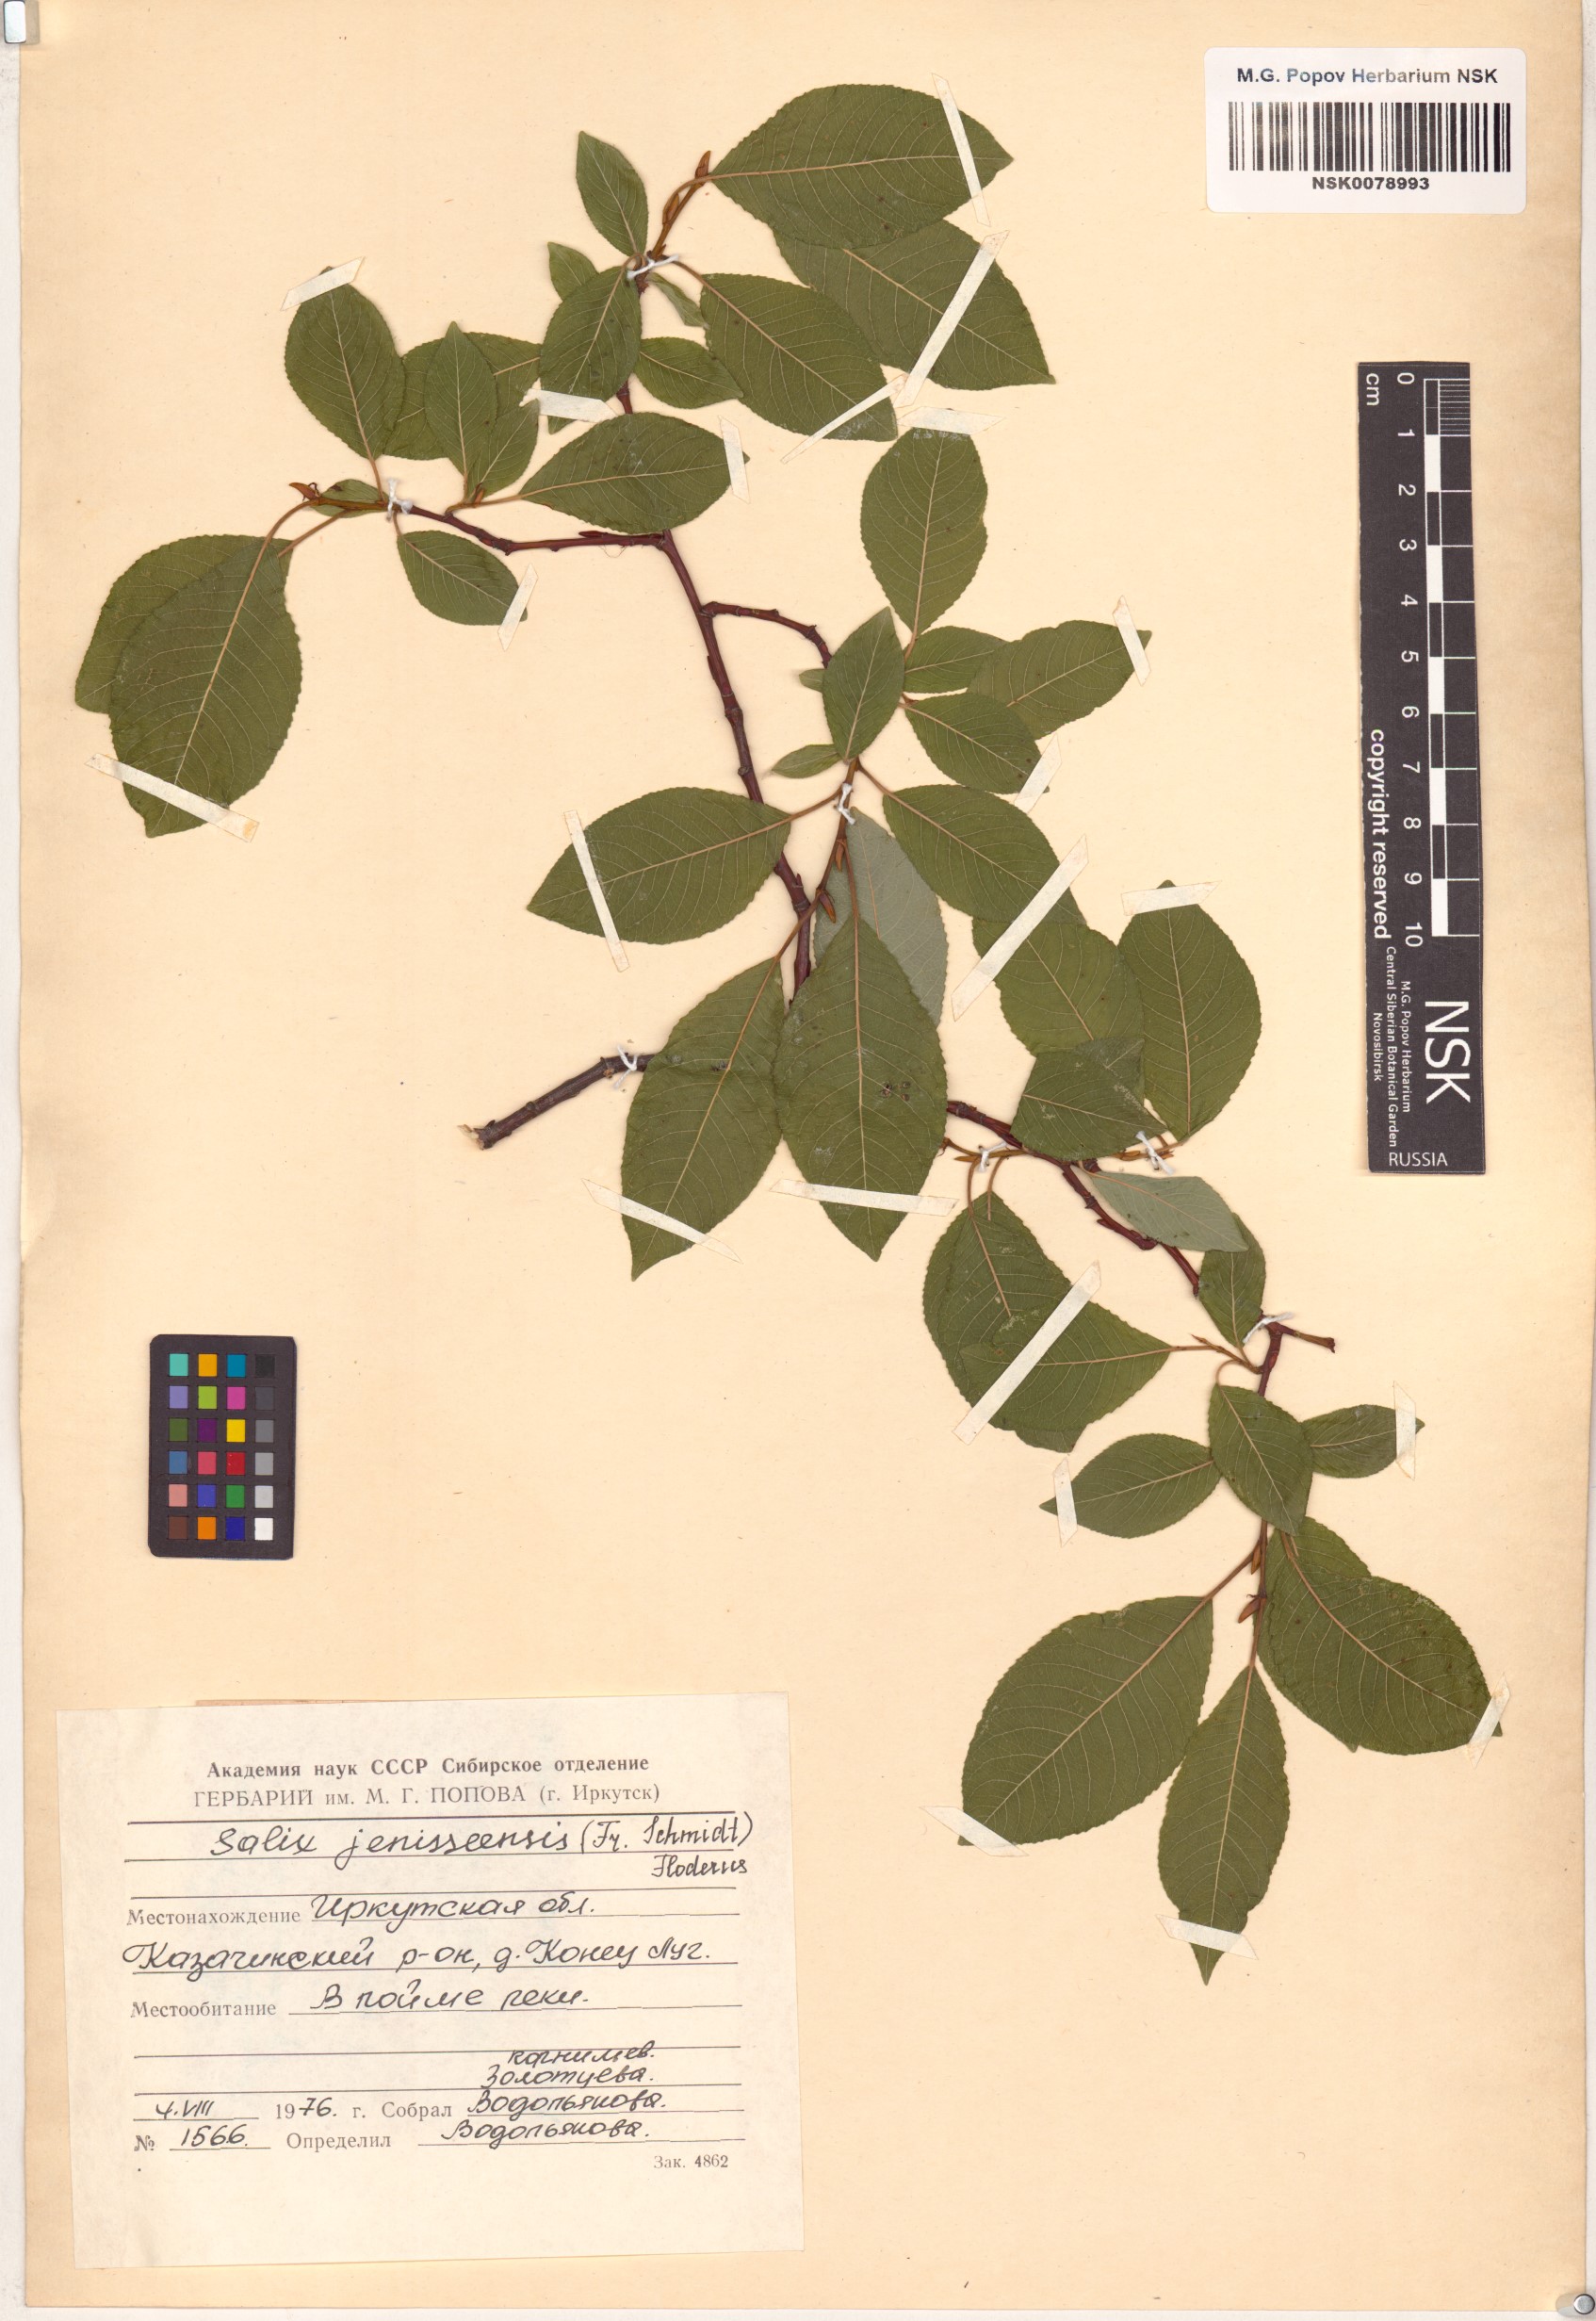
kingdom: Plantae
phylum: Tracheophyta
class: Magnoliopsida
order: Malpighiales
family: Salicaceae
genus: Salix
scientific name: Salix jenisseensis
